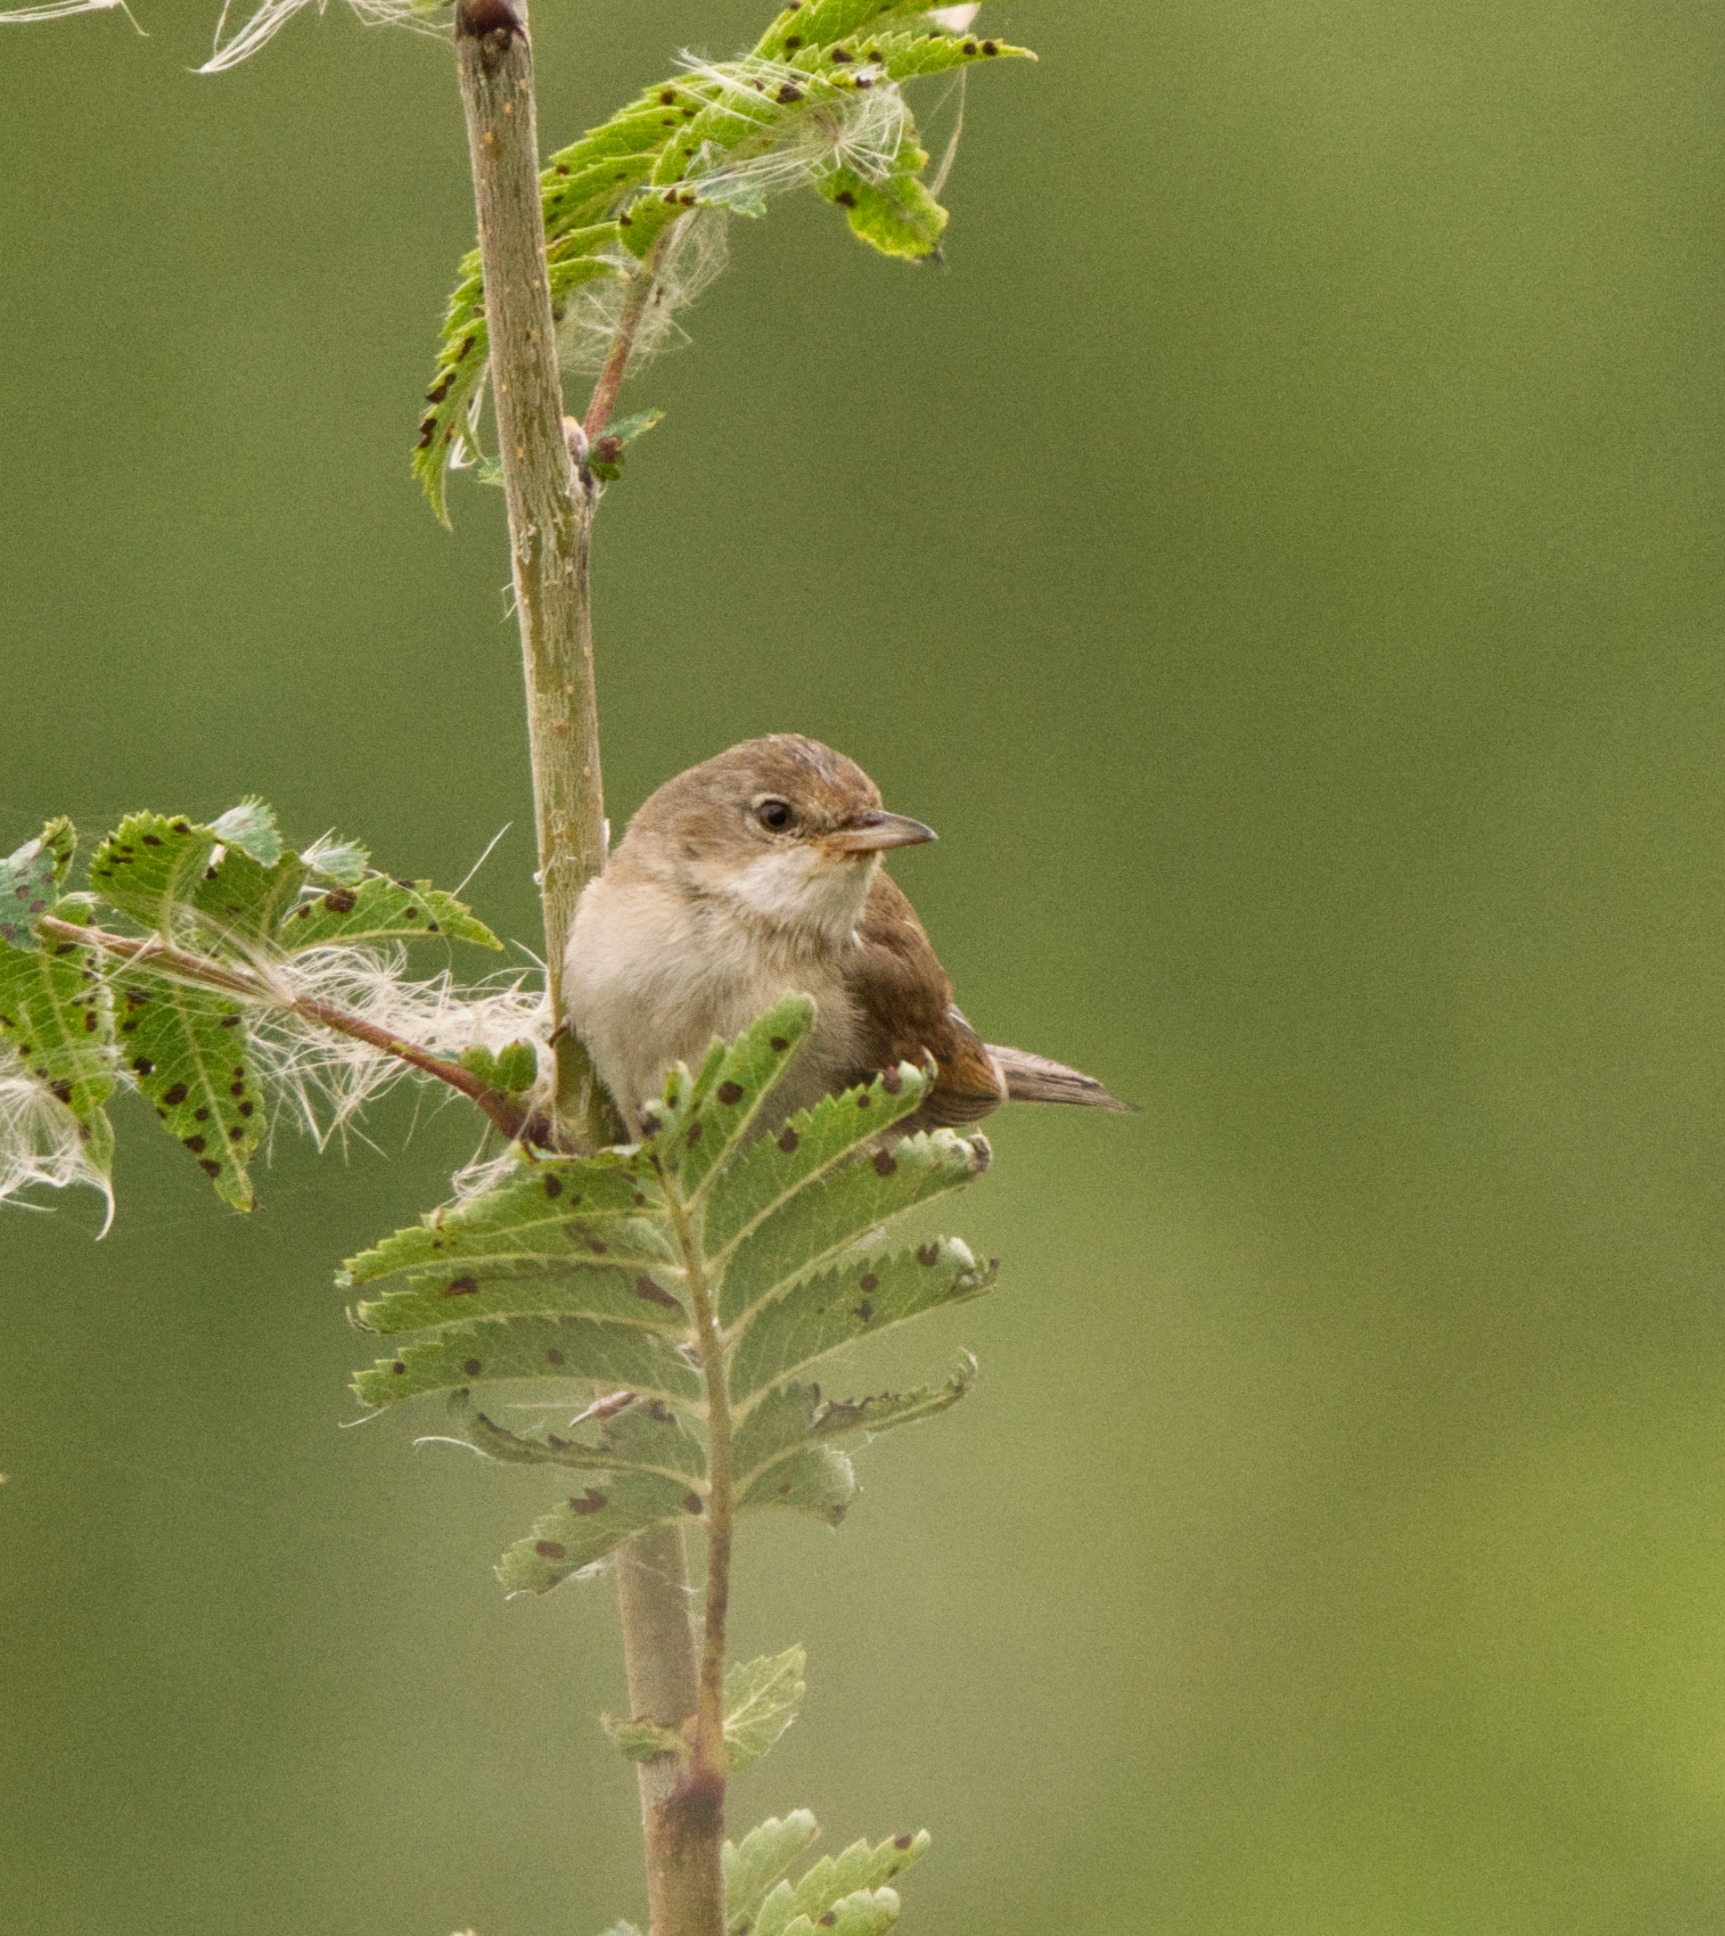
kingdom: Animalia
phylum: Chordata
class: Aves
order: Passeriformes
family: Sylviidae
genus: Sylvia
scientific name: Sylvia communis
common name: Tornsanger
